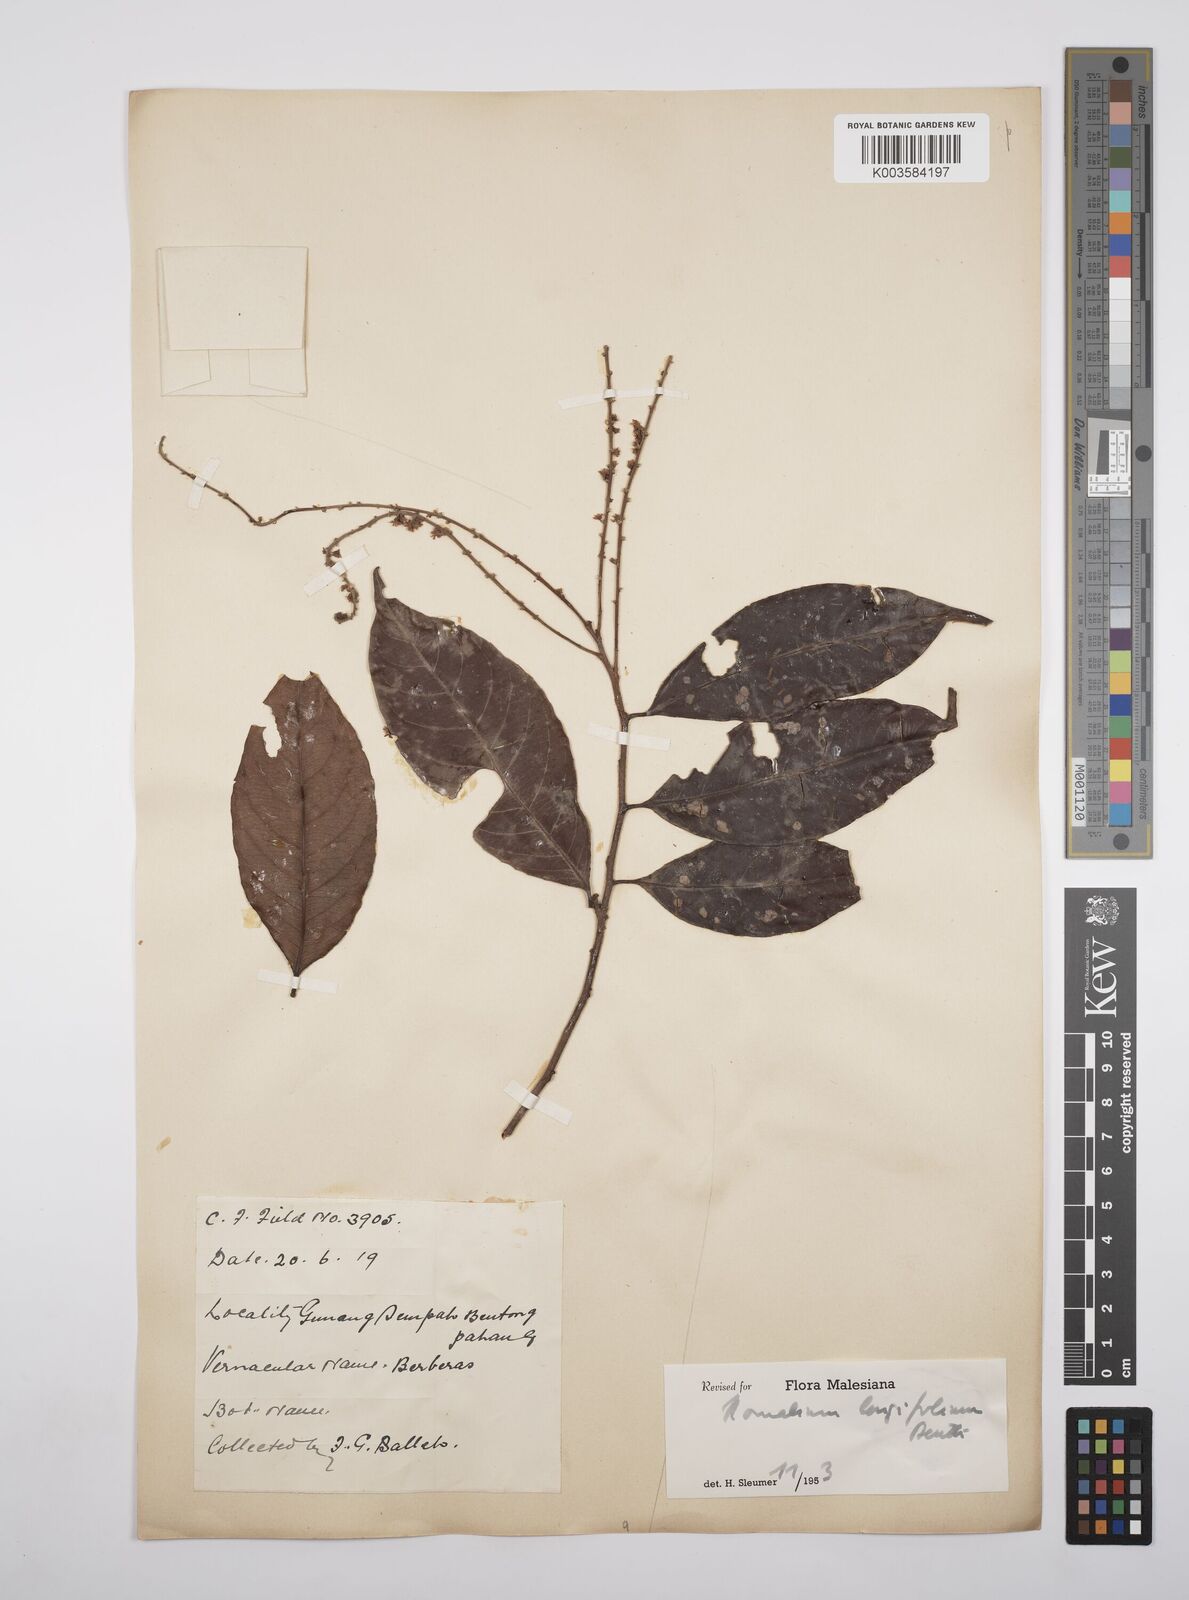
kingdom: Plantae
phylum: Tracheophyta
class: Magnoliopsida
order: Malpighiales
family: Salicaceae
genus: Homalium
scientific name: Homalium longifolium
